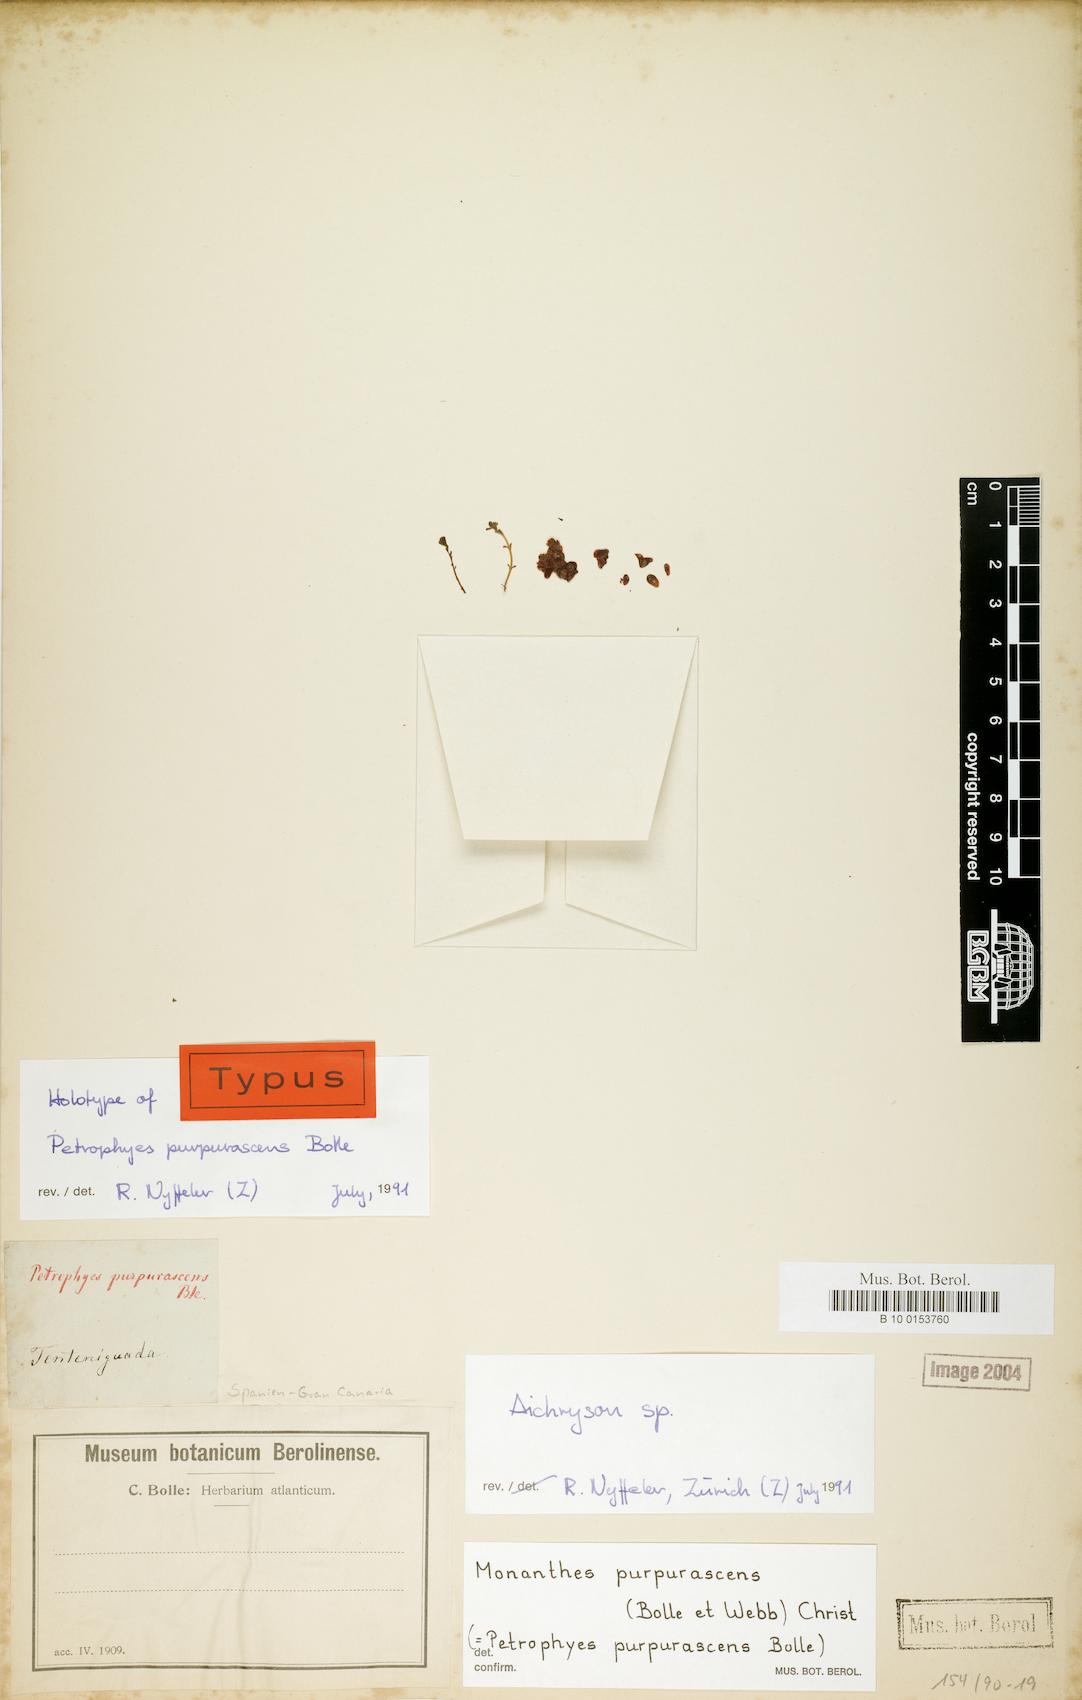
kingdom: Plantae
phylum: Tracheophyta
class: Magnoliopsida
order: Saxifragales
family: Crassulaceae
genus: Monanthes
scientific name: Monanthes purpurascens
